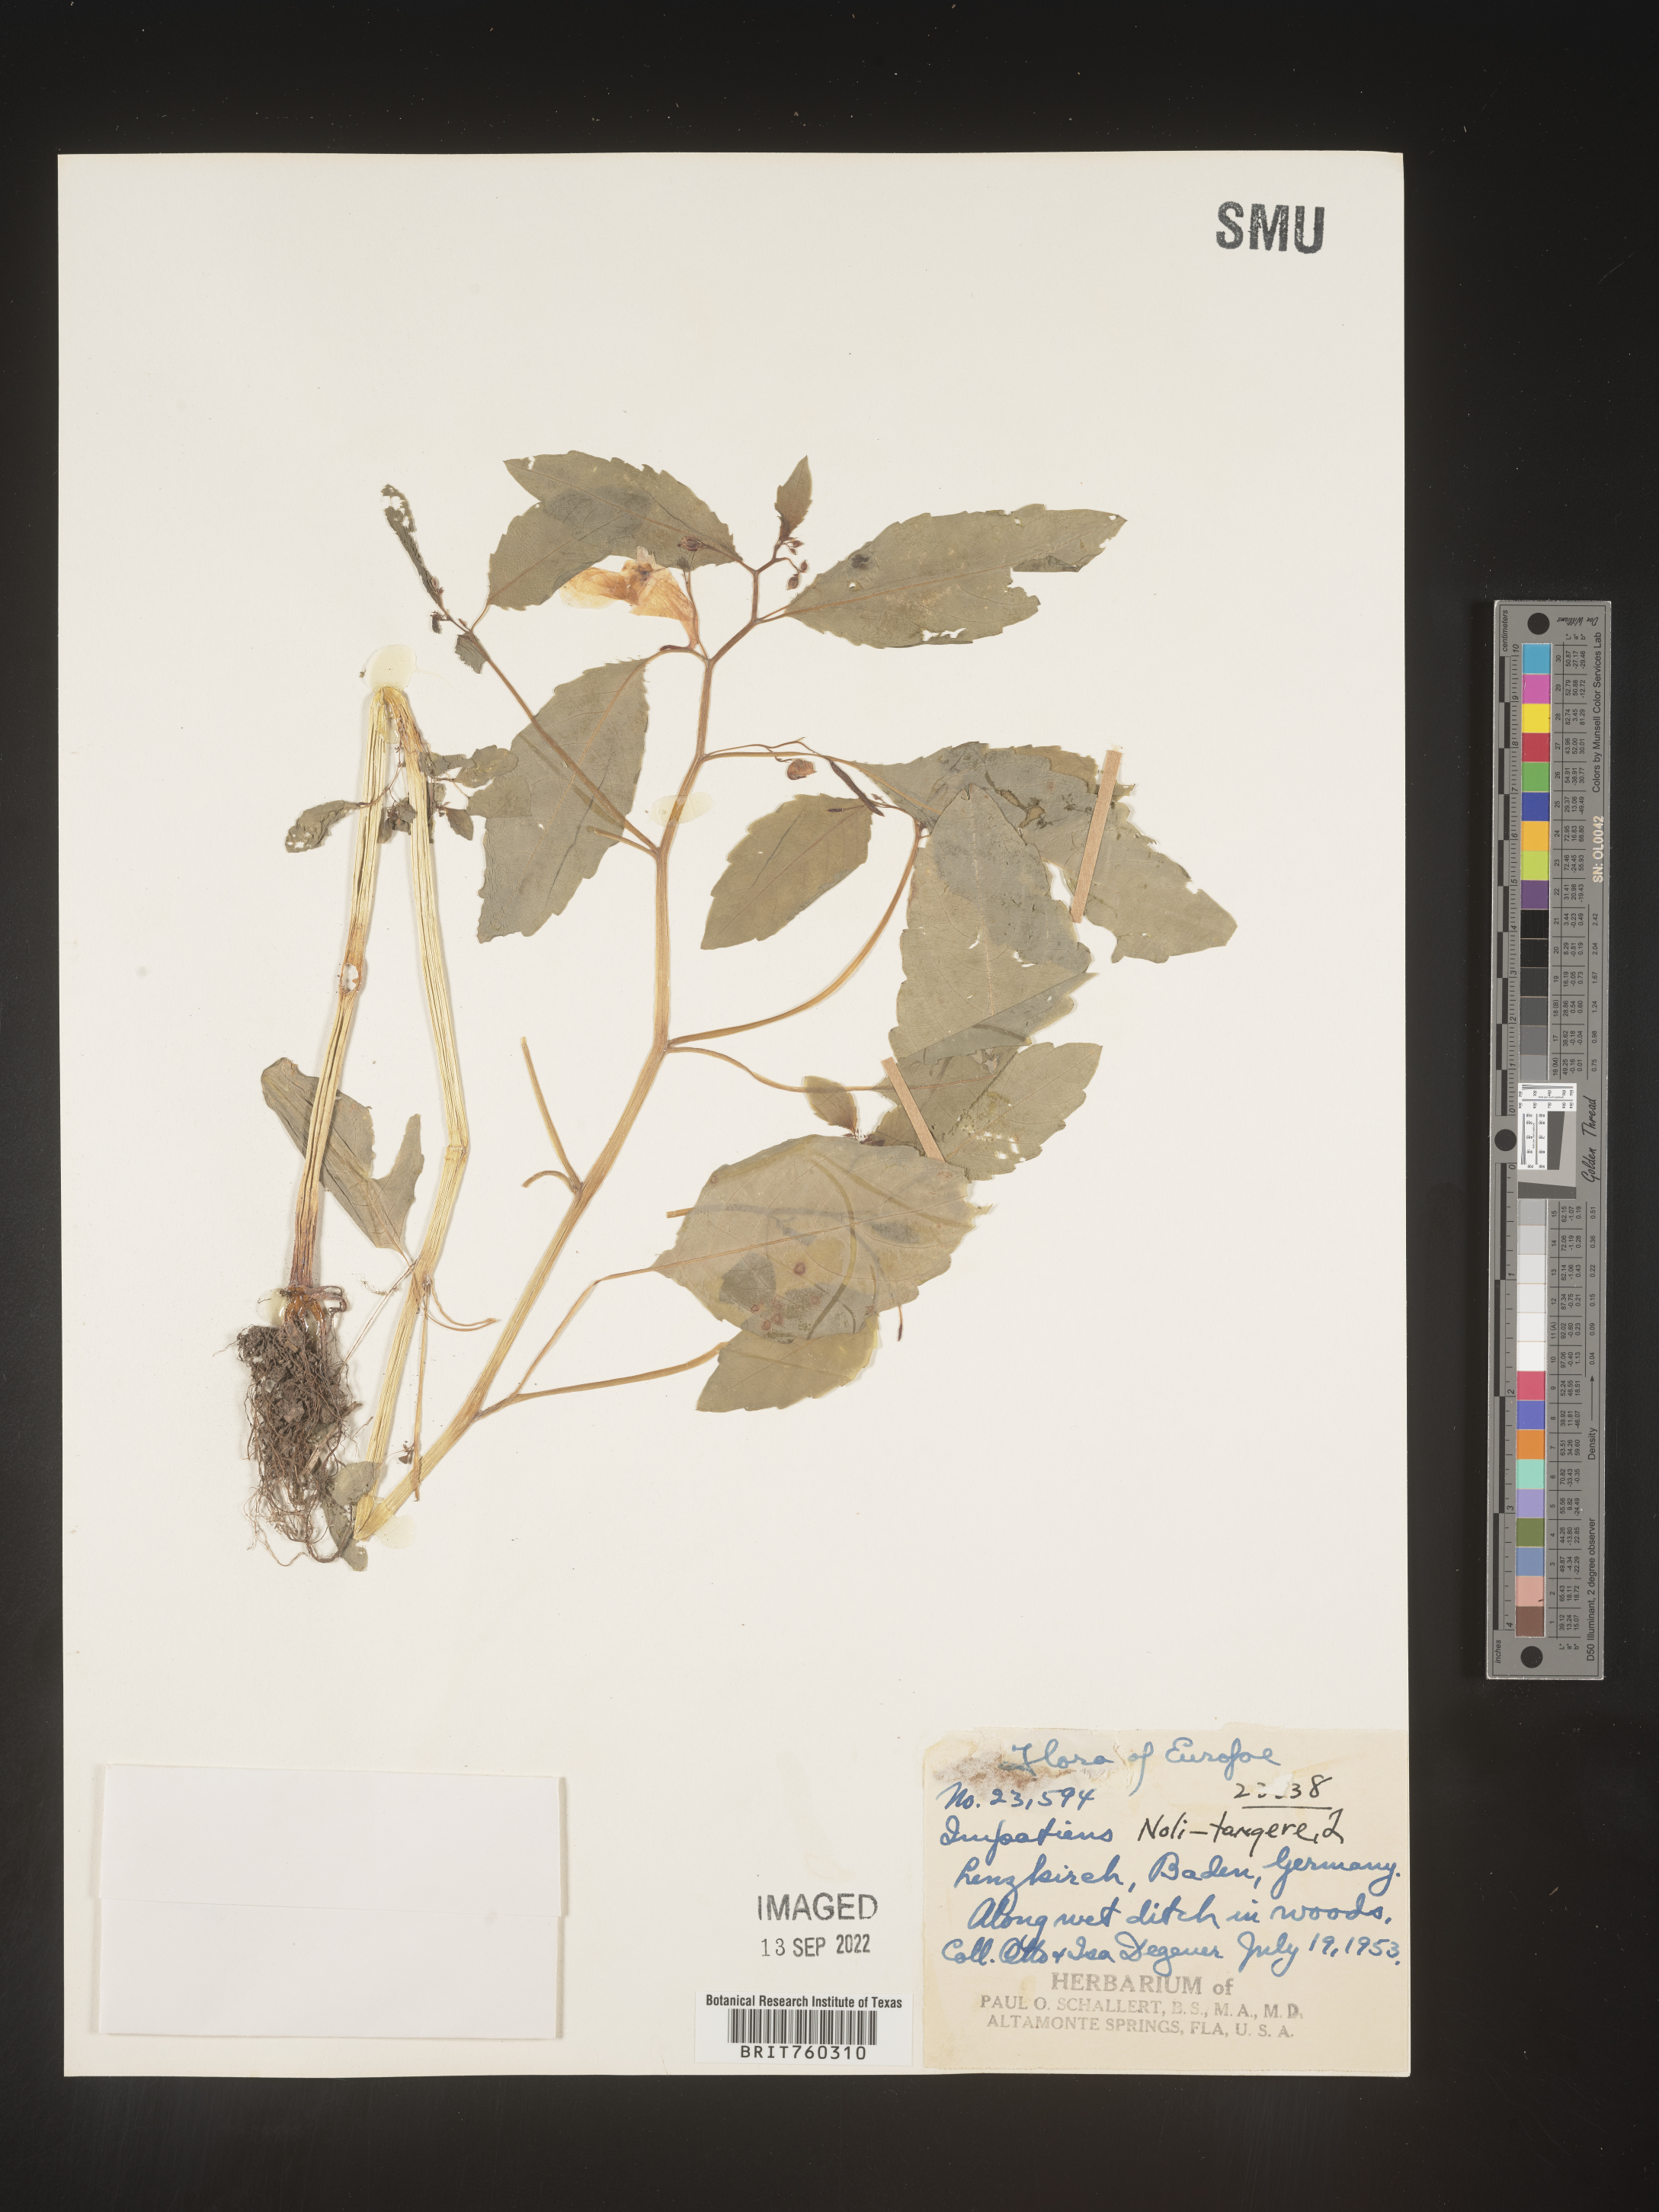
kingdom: Plantae
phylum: Tracheophyta
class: Magnoliopsida
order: Ericales
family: Balsaminaceae
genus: Impatiens
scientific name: Impatiens
